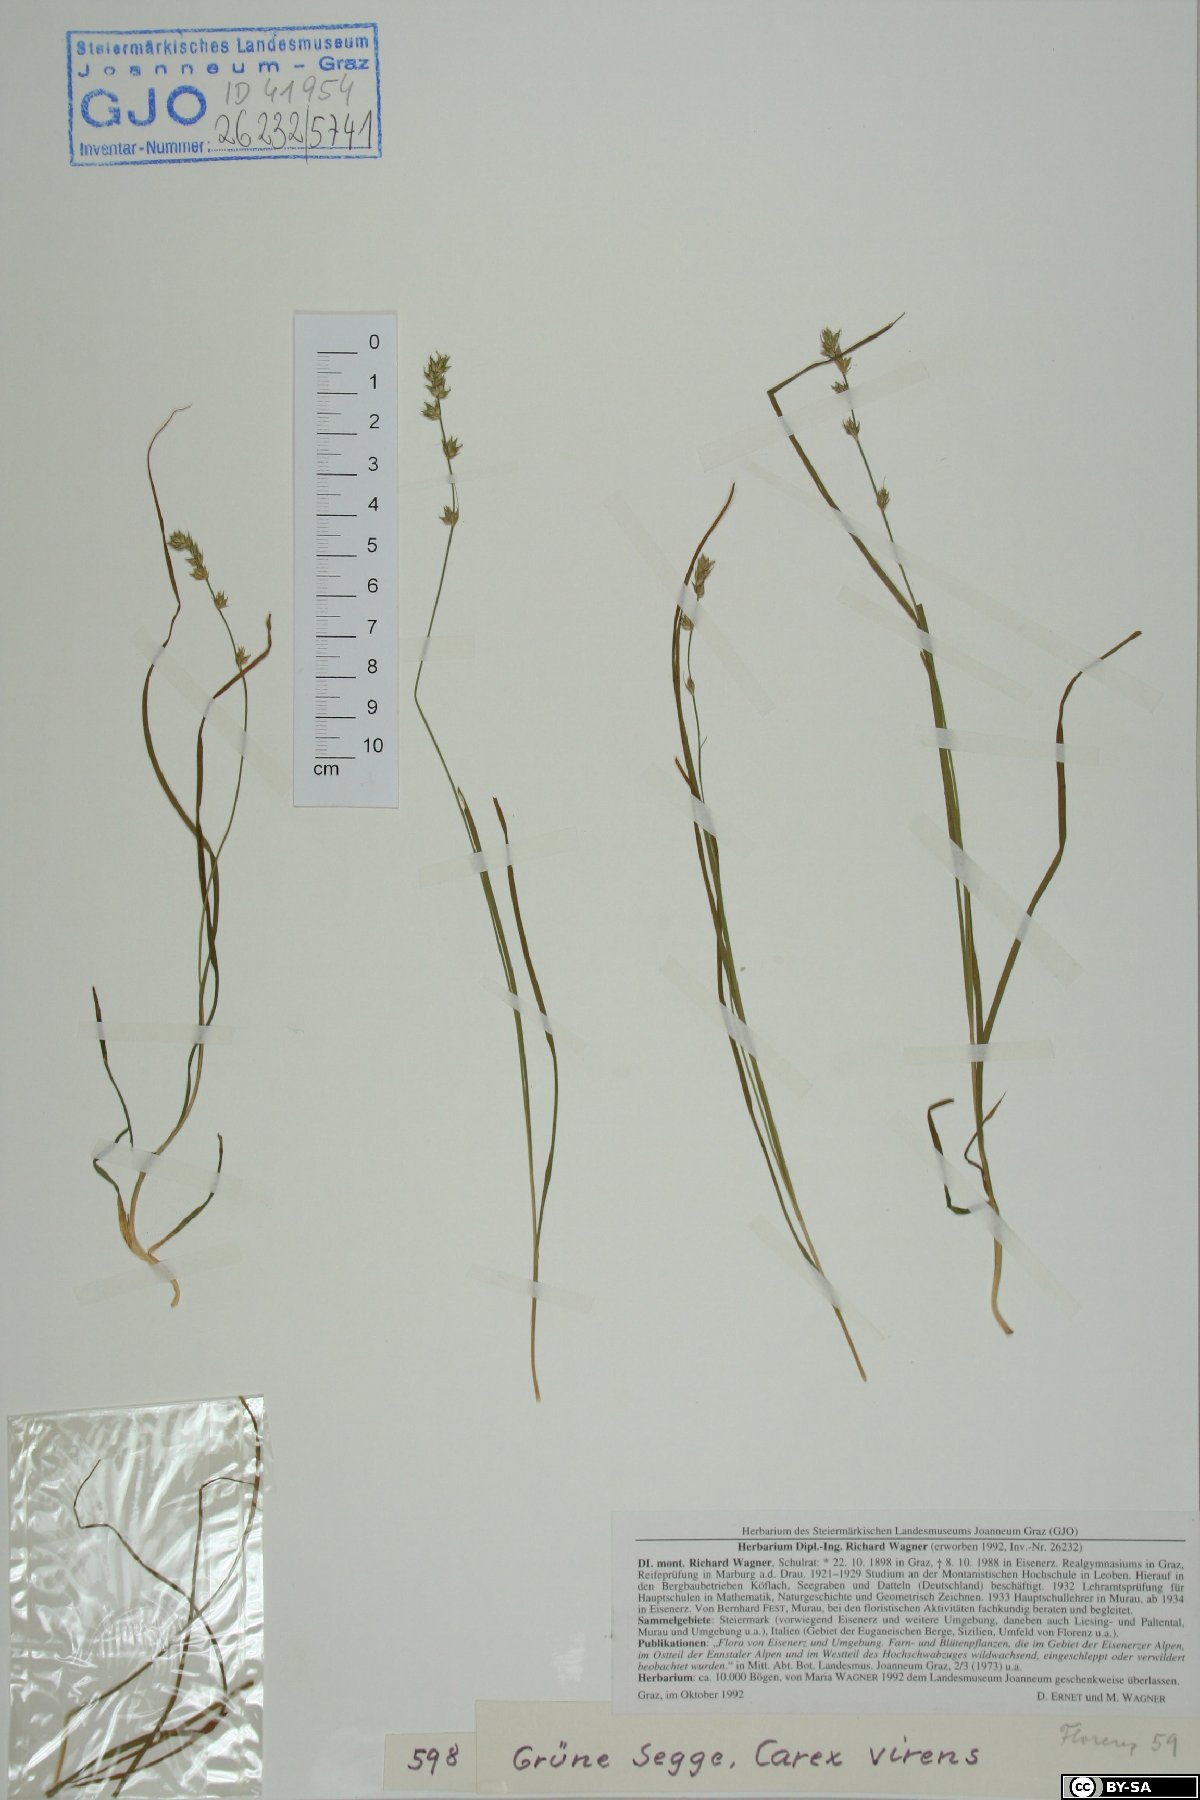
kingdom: Plantae
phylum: Tracheophyta
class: Liliopsida
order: Poales
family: Cyperaceae
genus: Carex
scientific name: Carex divulsa
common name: Grassland sedge
